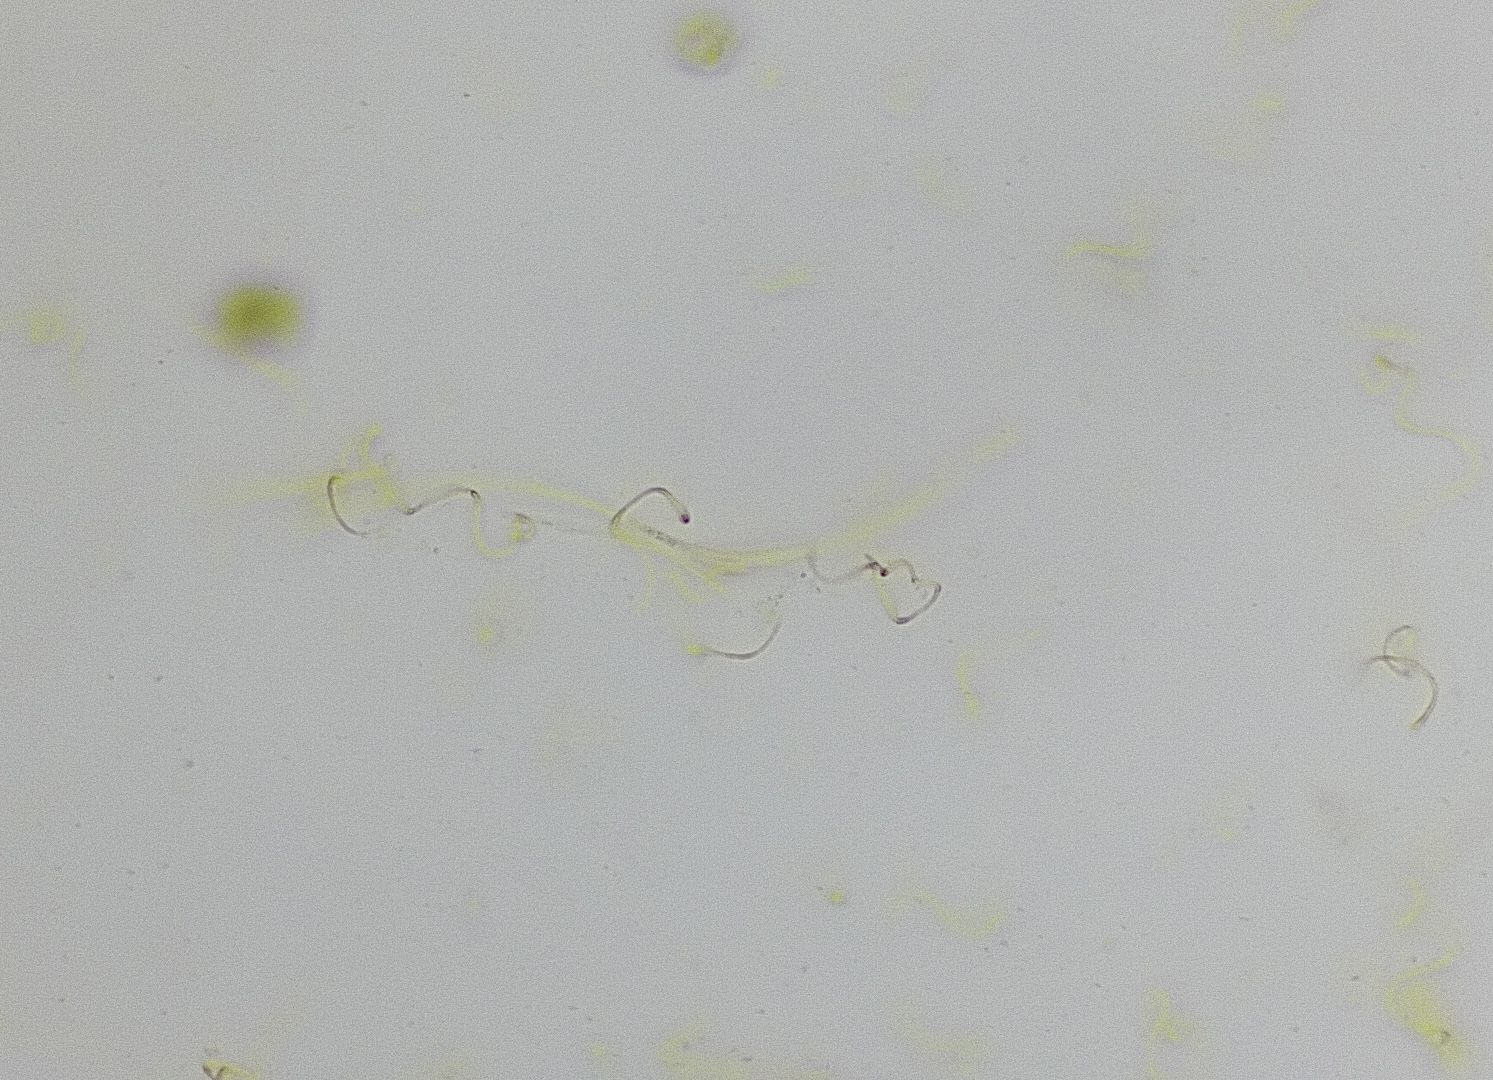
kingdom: Fungi
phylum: Ascomycota
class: Lecanoromycetes
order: Ostropales
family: Stictidaceae
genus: Robergea
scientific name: Robergea cubicularis
